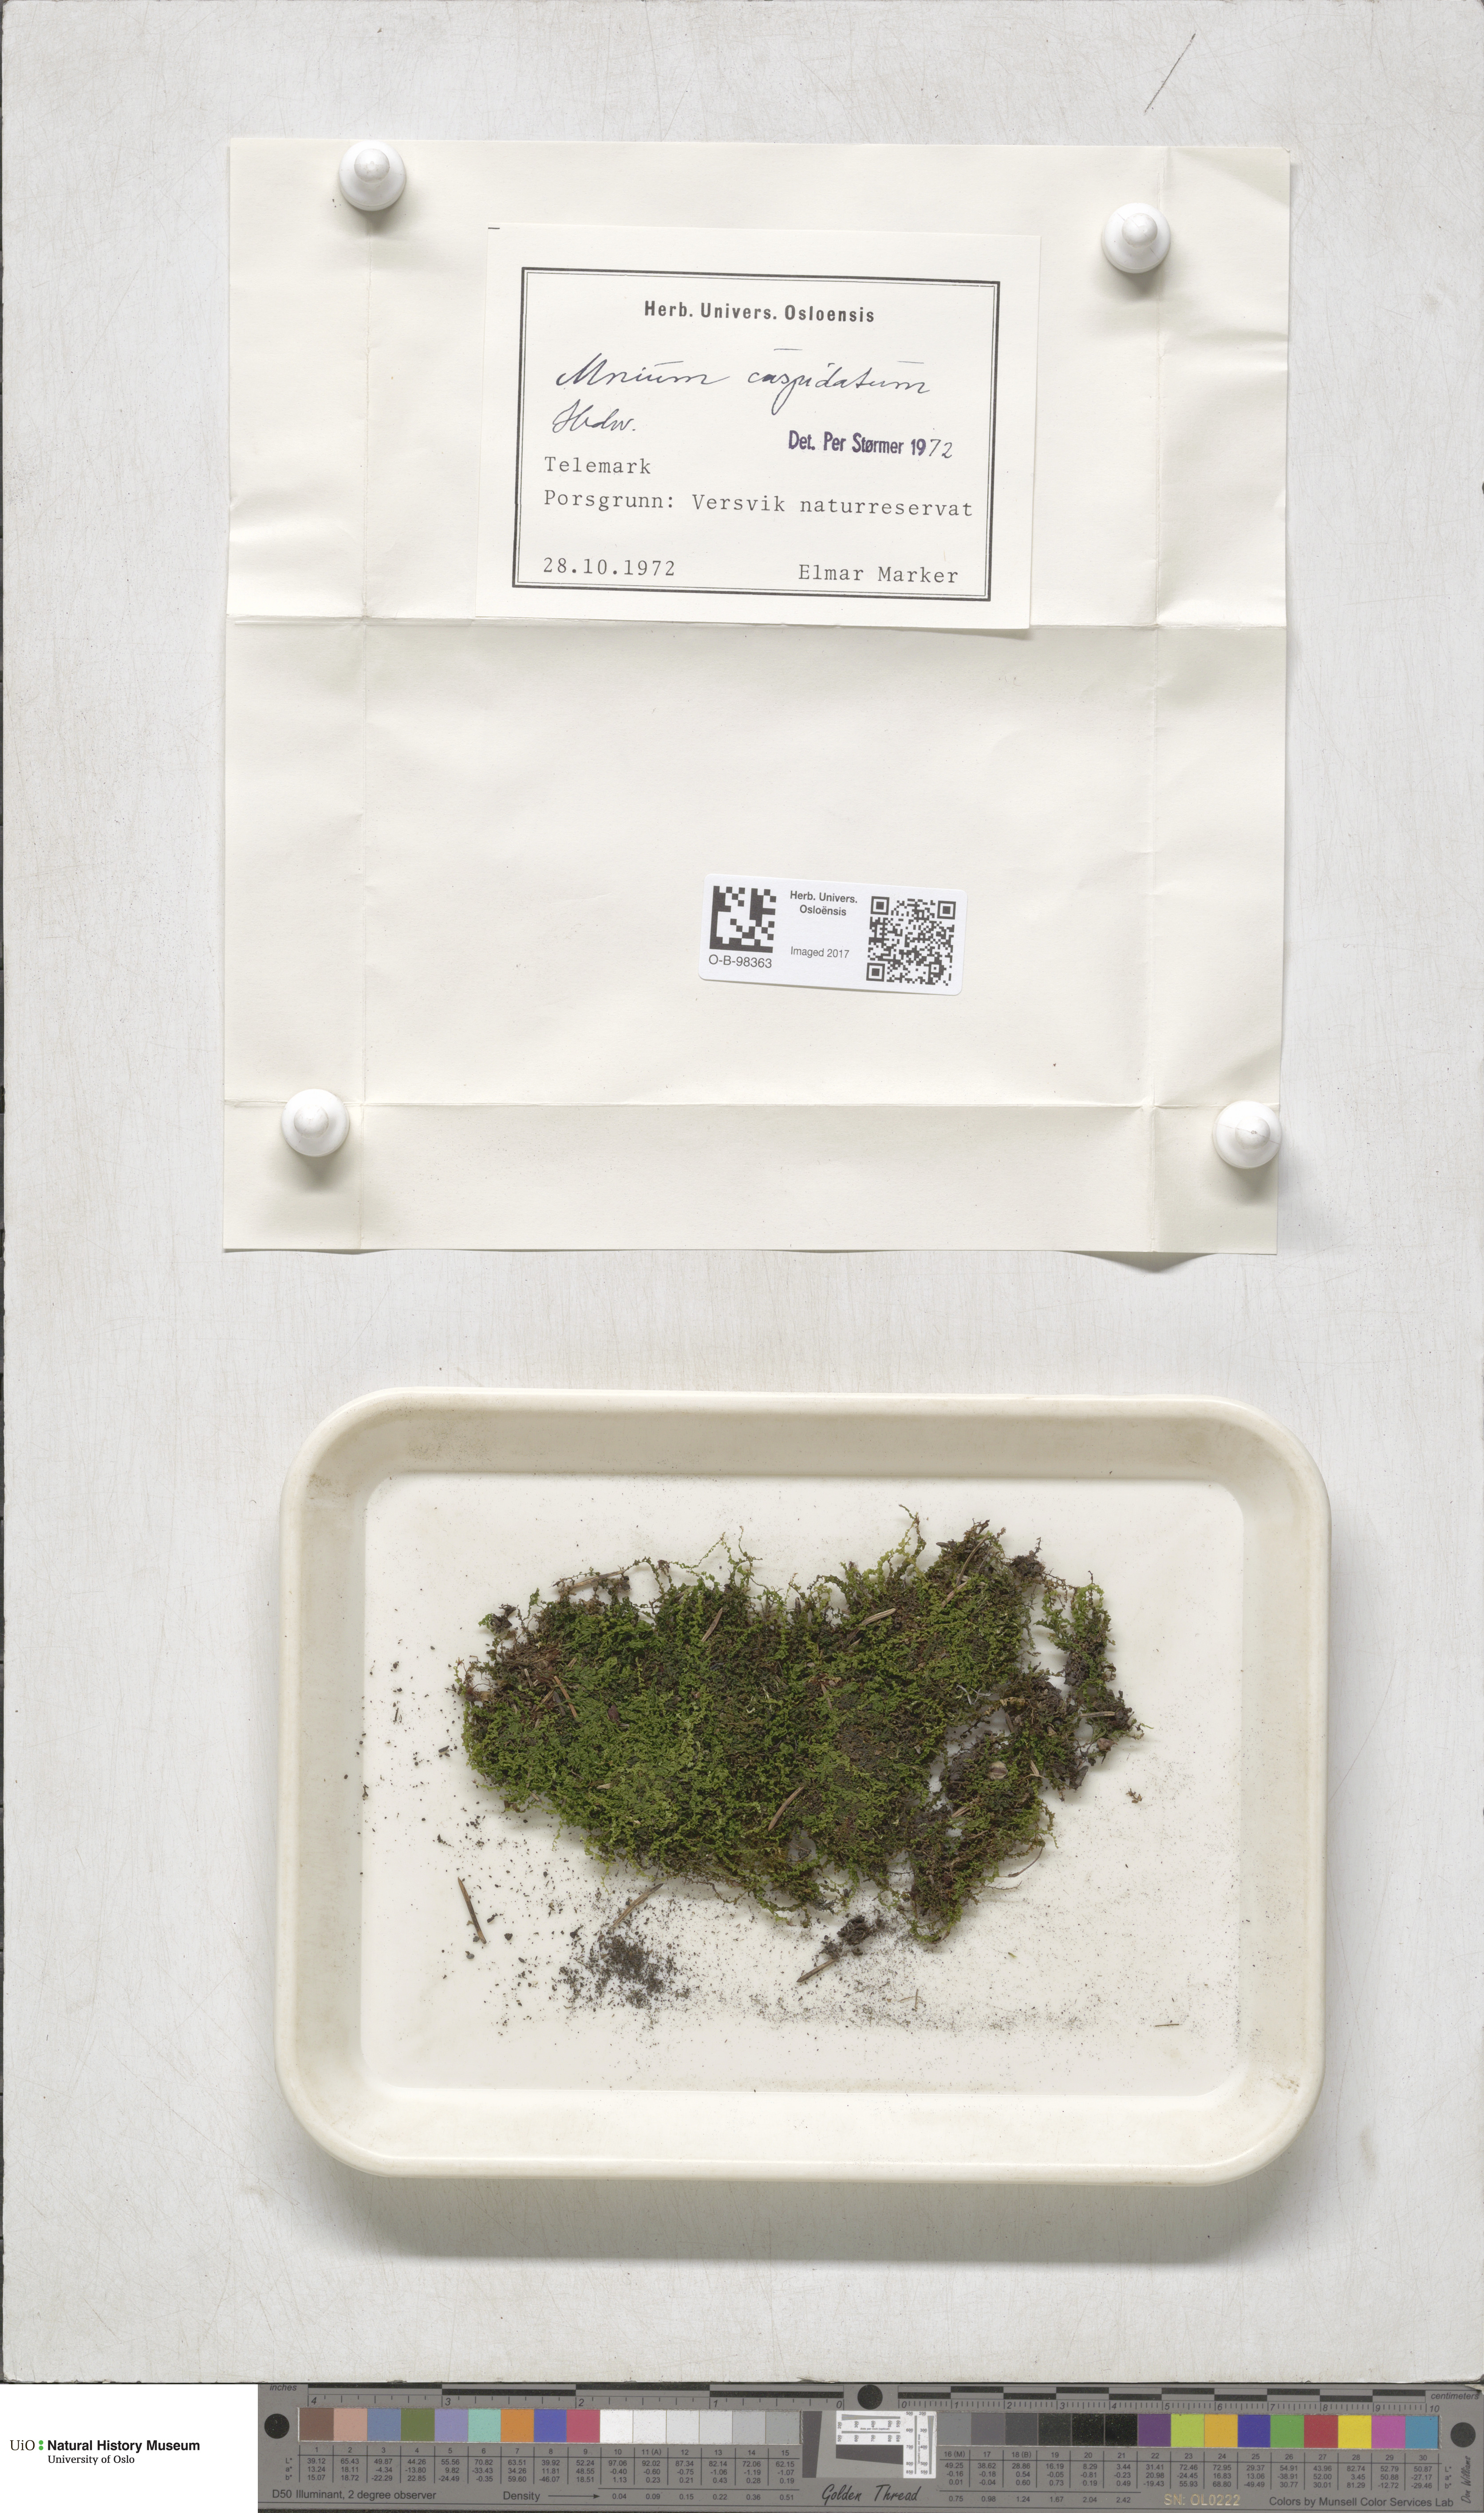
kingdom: Plantae
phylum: Bryophyta
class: Bryopsida
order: Bryales
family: Mniaceae
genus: Plagiomnium
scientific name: Plagiomnium cuspidatum
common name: Woodsy leafy moss
